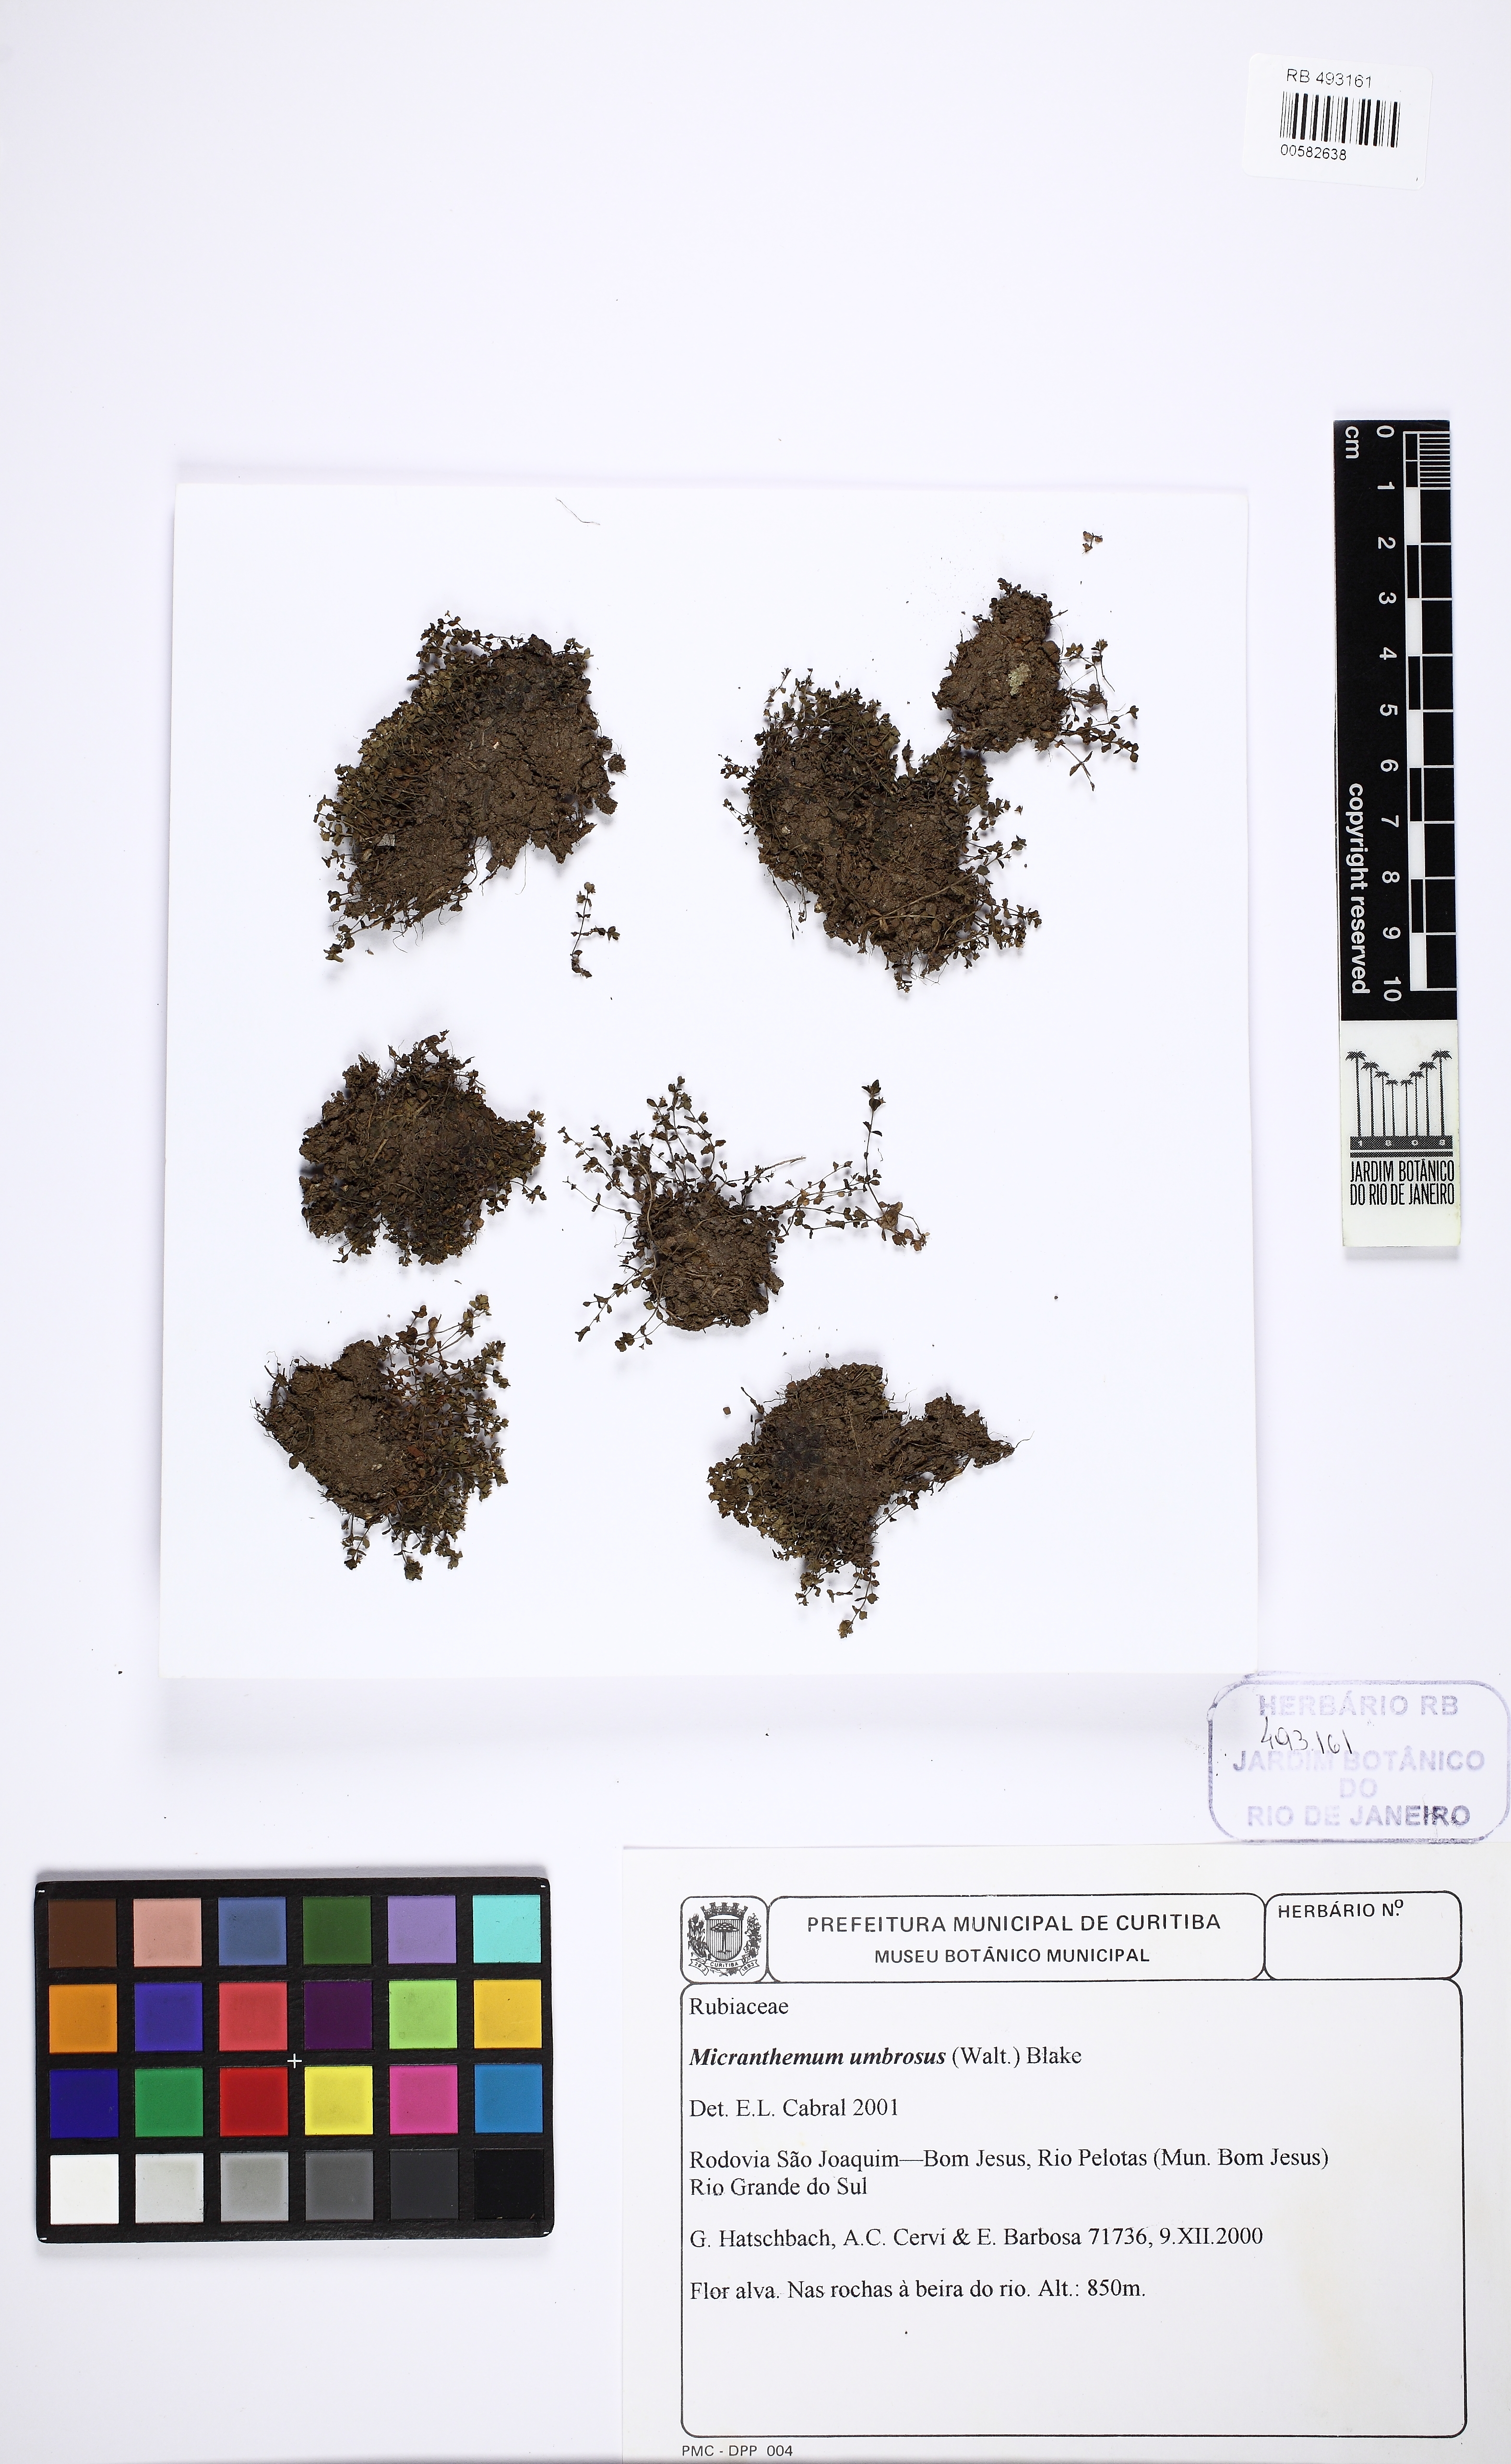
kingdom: Plantae
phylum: Tracheophyta
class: Magnoliopsida
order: Lamiales
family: Linderniaceae
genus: Micranthemum
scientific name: Micranthemum umbrosum
